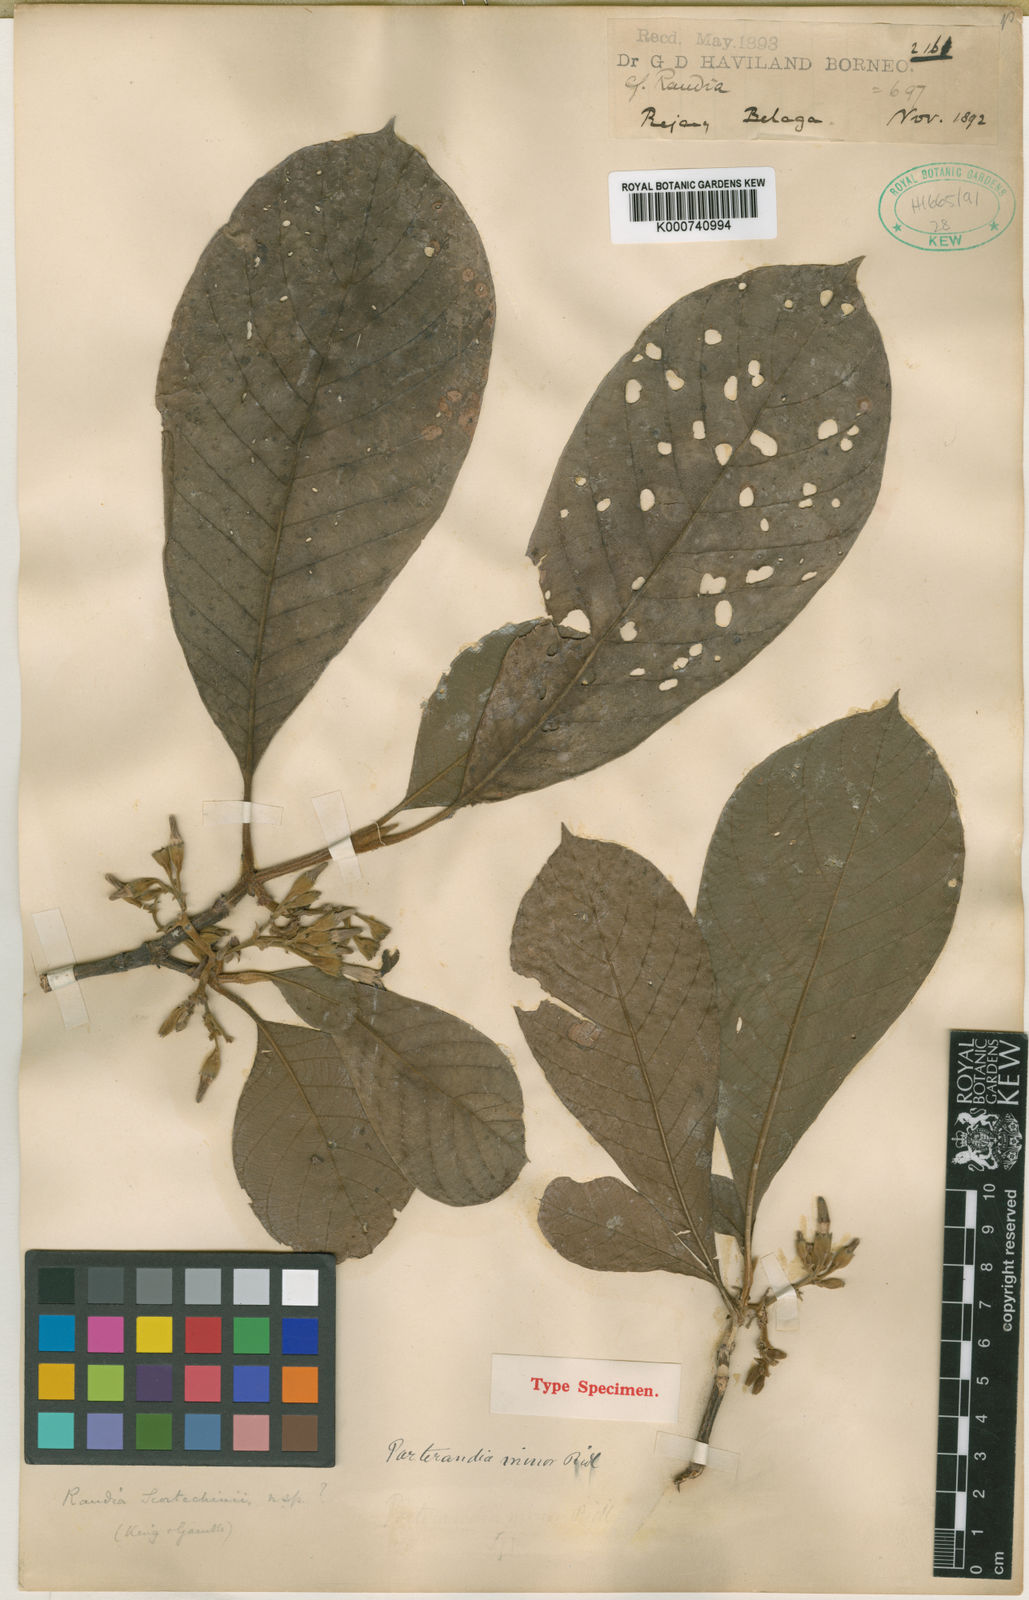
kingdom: Plantae
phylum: Tracheophyta
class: Magnoliopsida
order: Gentianales
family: Rubiaceae
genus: Porterandia
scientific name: Porterandia minor
